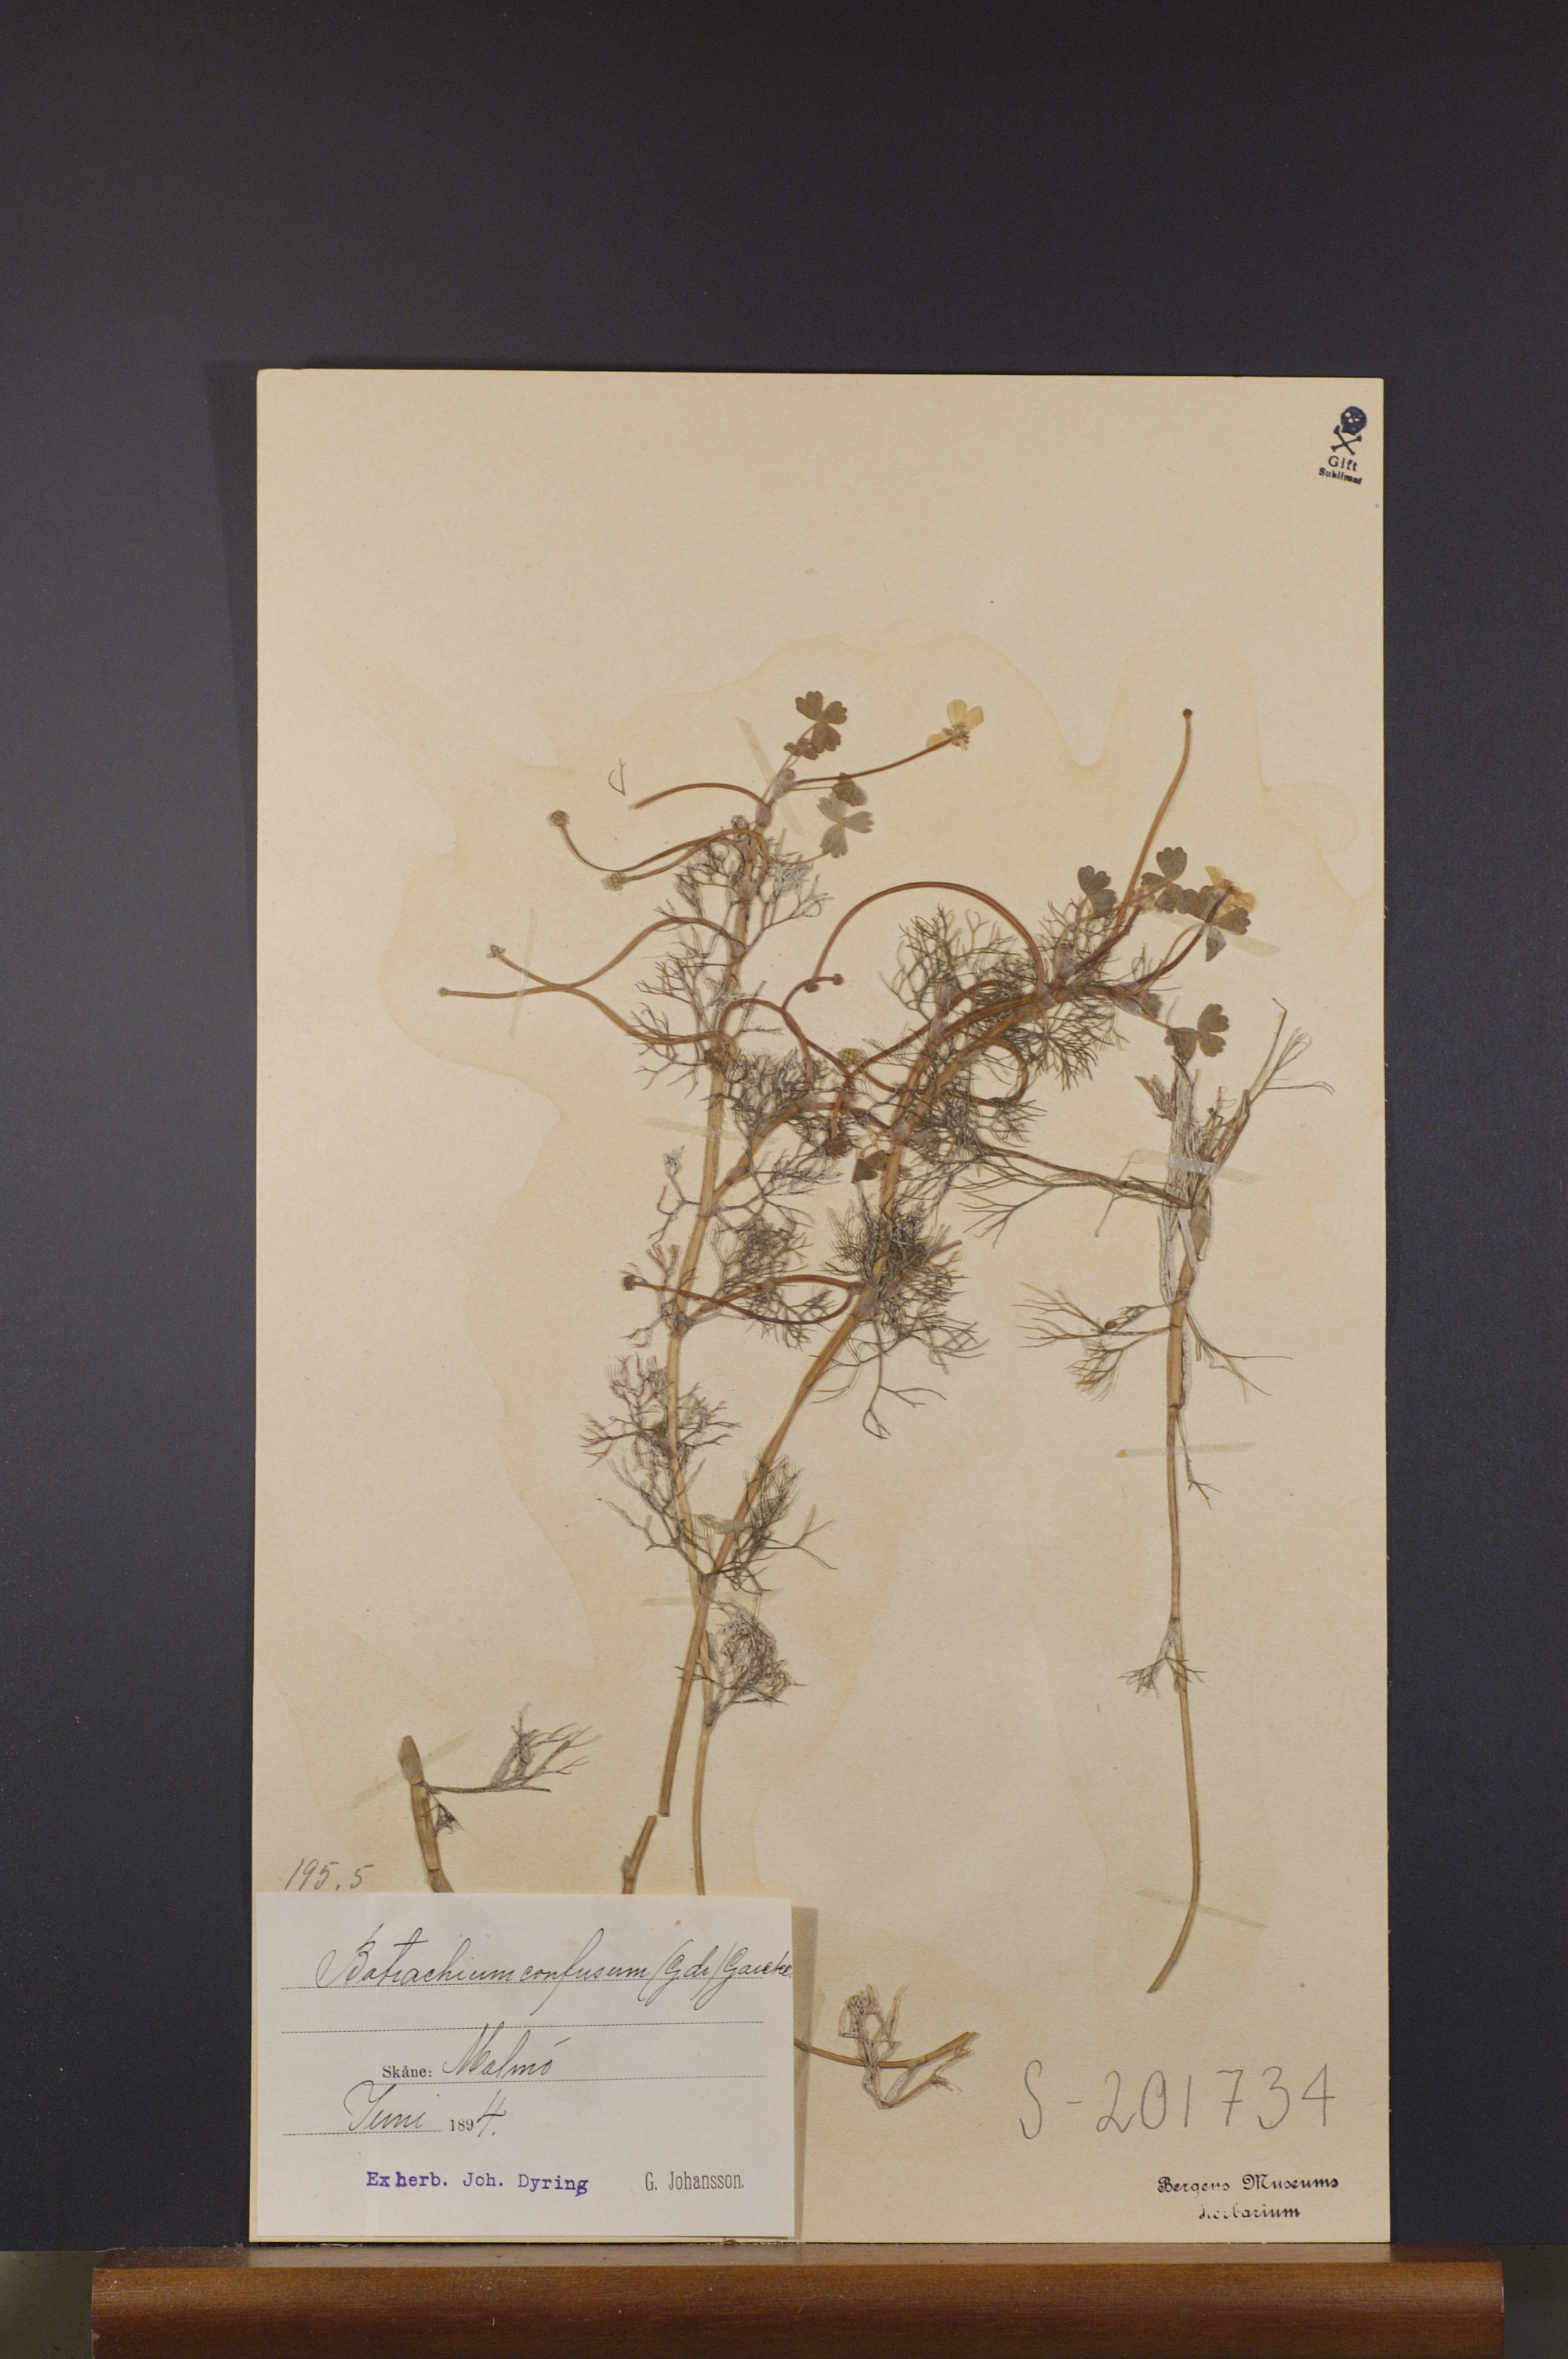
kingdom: Plantae
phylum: Tracheophyta
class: Magnoliopsida
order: Ranunculales
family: Ranunculaceae
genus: Ranunculus
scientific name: Ranunculus peltatus
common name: Pond water-crowfoot
